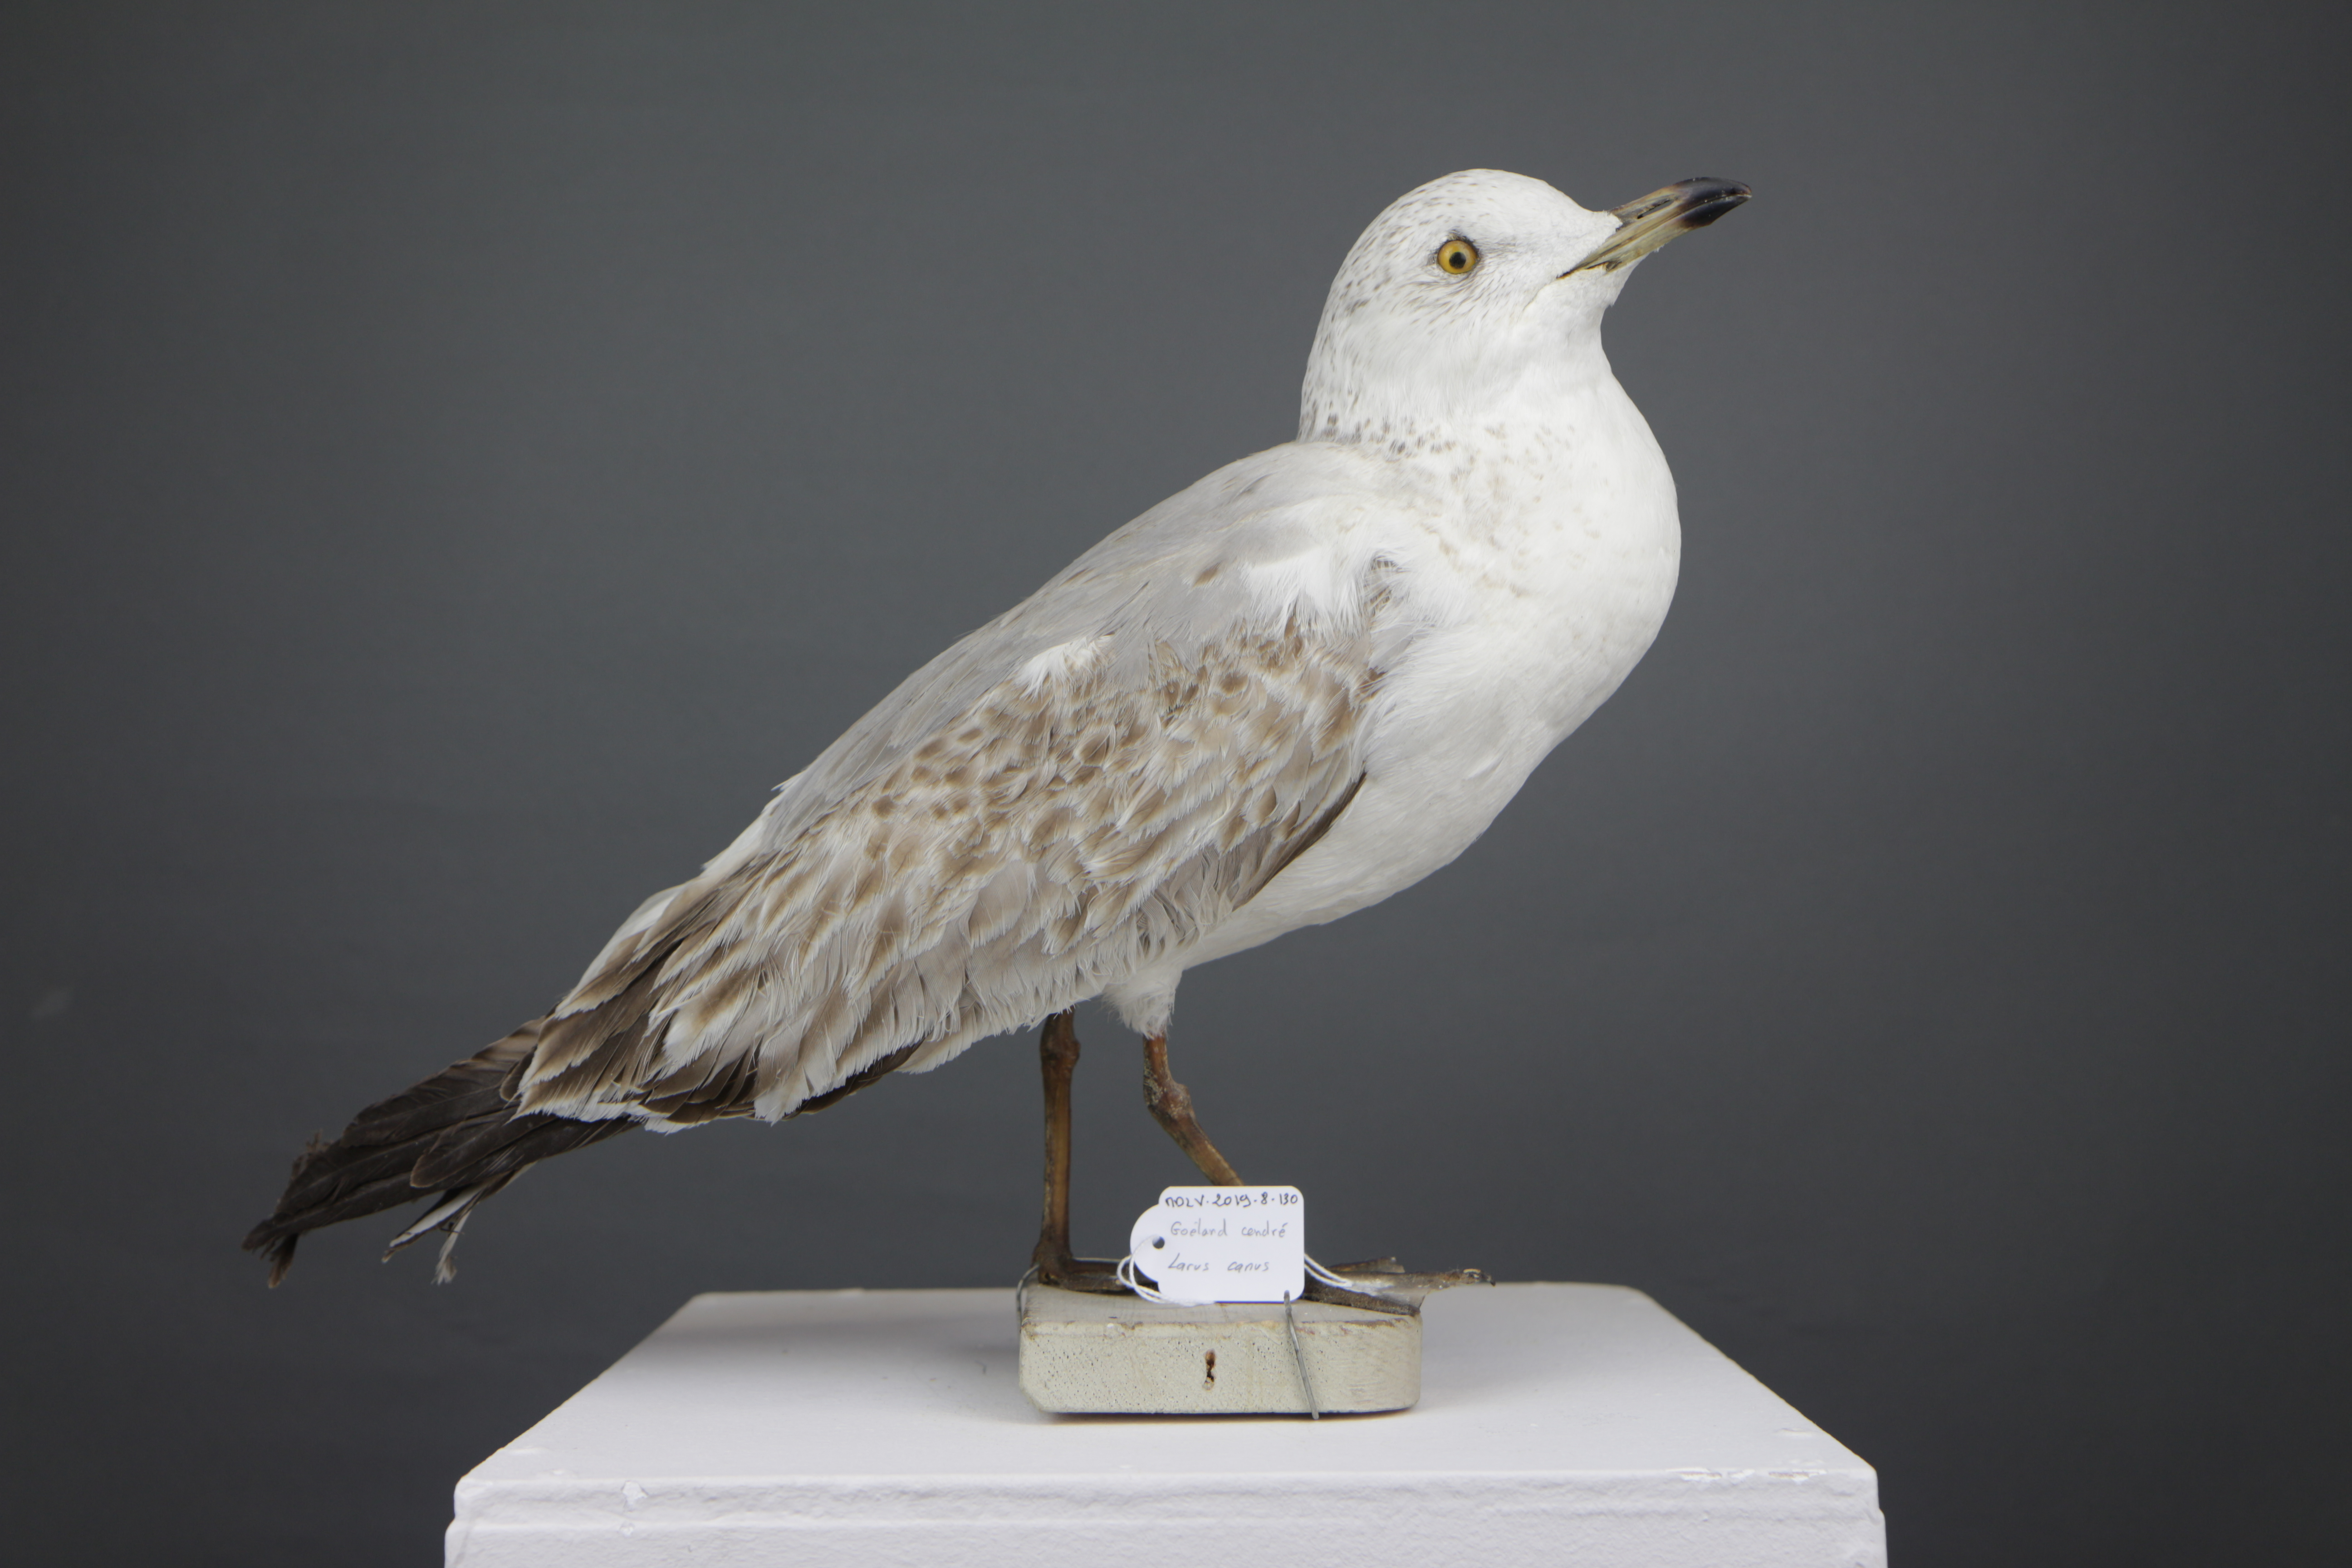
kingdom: Animalia
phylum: Chordata
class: Aves
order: Charadriiformes
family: Laridae
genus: Larus
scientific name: Larus canus
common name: Mew gull
